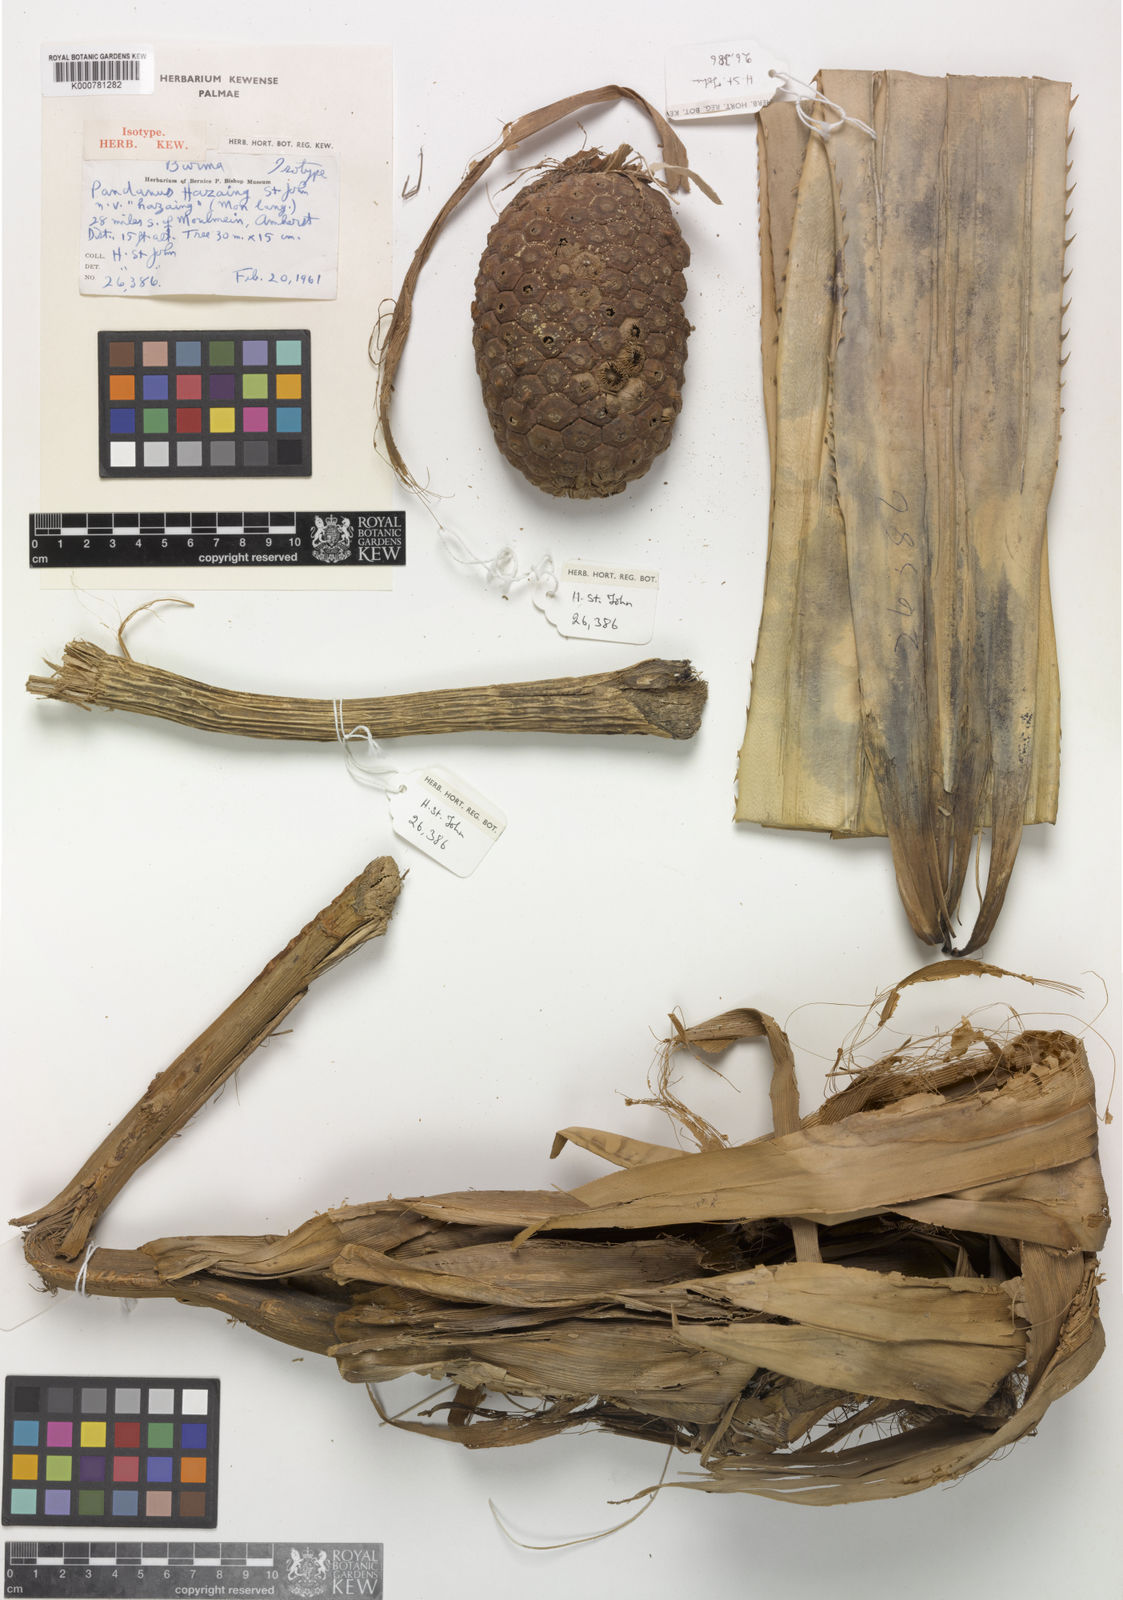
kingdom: Plantae
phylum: Tracheophyta
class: Liliopsida
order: Pandanales
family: Pandanaceae
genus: Pandanus
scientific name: Pandanus
